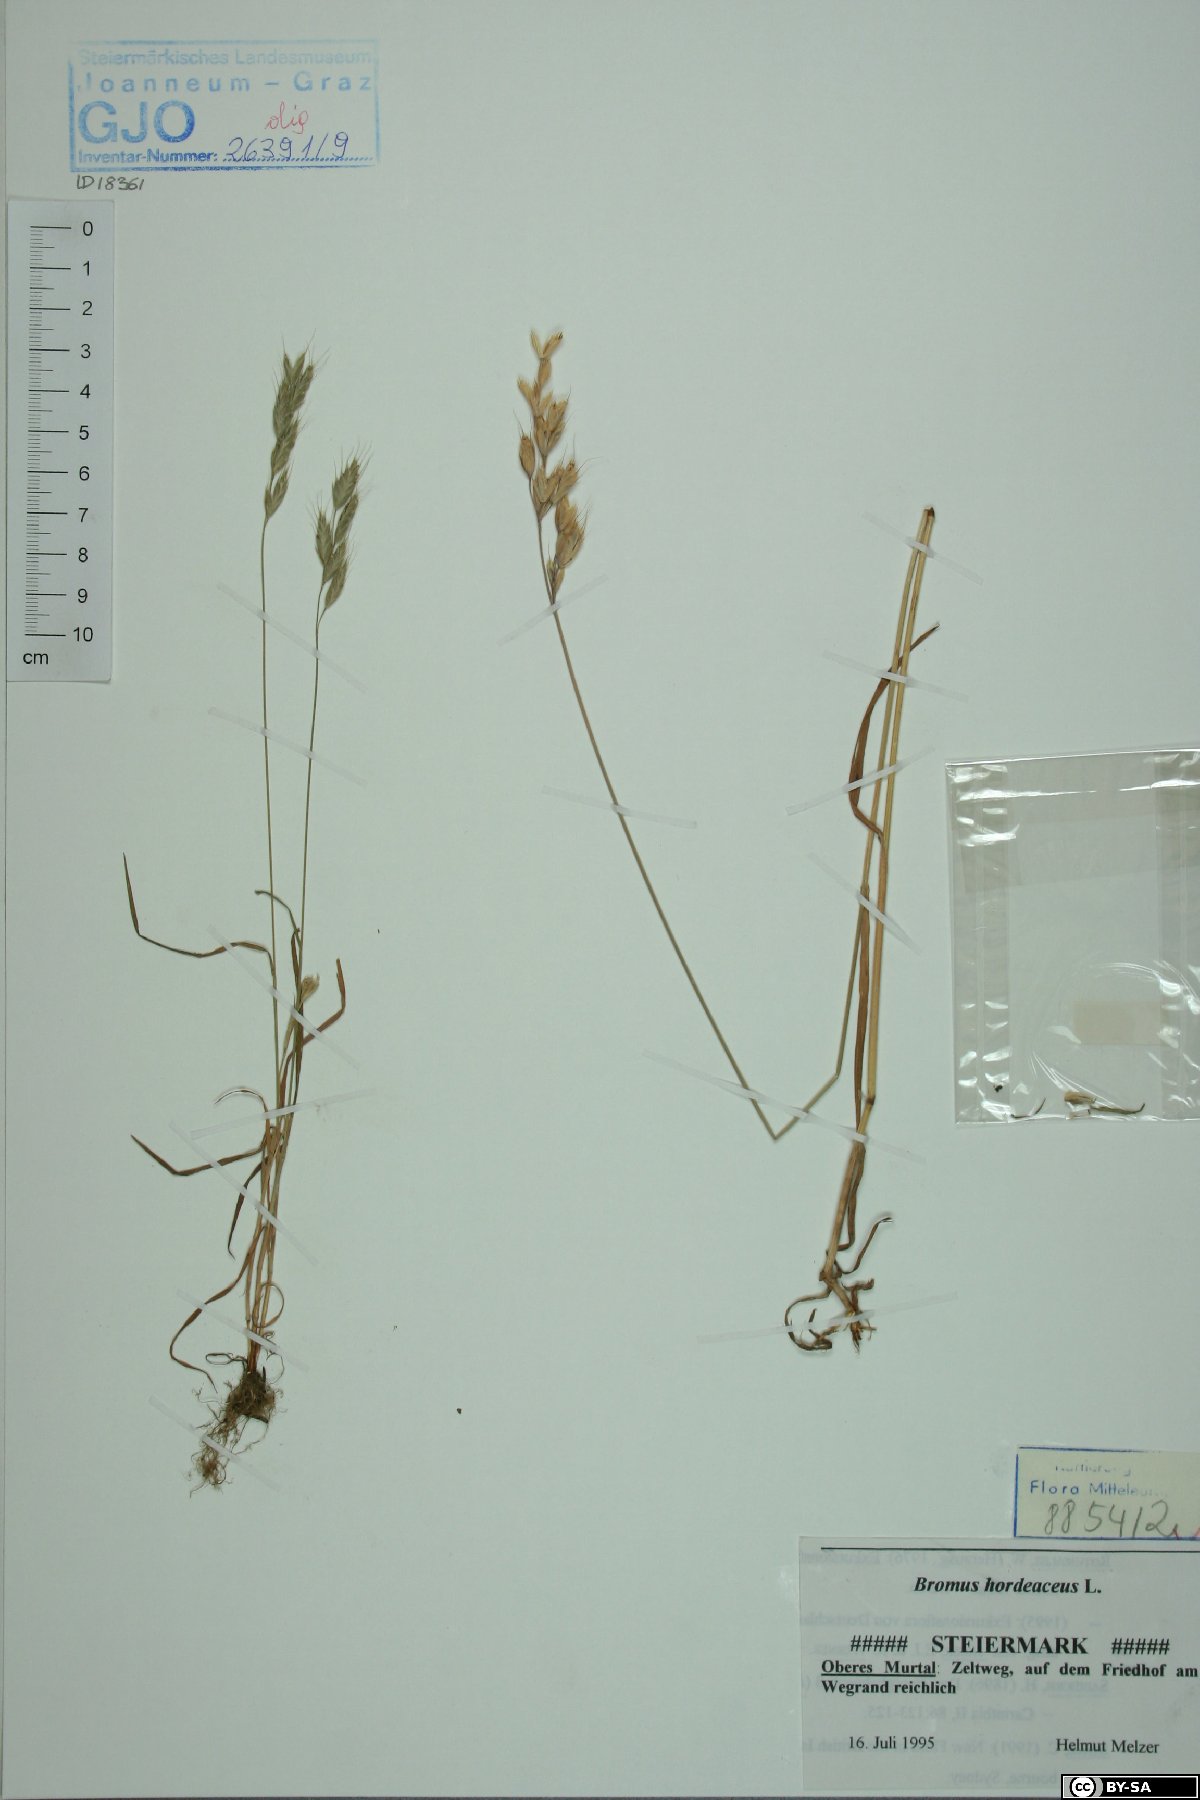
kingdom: Plantae
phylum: Tracheophyta
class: Liliopsida
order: Poales
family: Poaceae
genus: Bromus
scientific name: Bromus hordeaceus
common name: Soft brome
